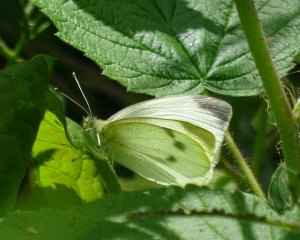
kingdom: Animalia
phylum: Arthropoda
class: Insecta
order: Lepidoptera
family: Pieridae
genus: Pieris
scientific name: Pieris rapae
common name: Cabbage White
